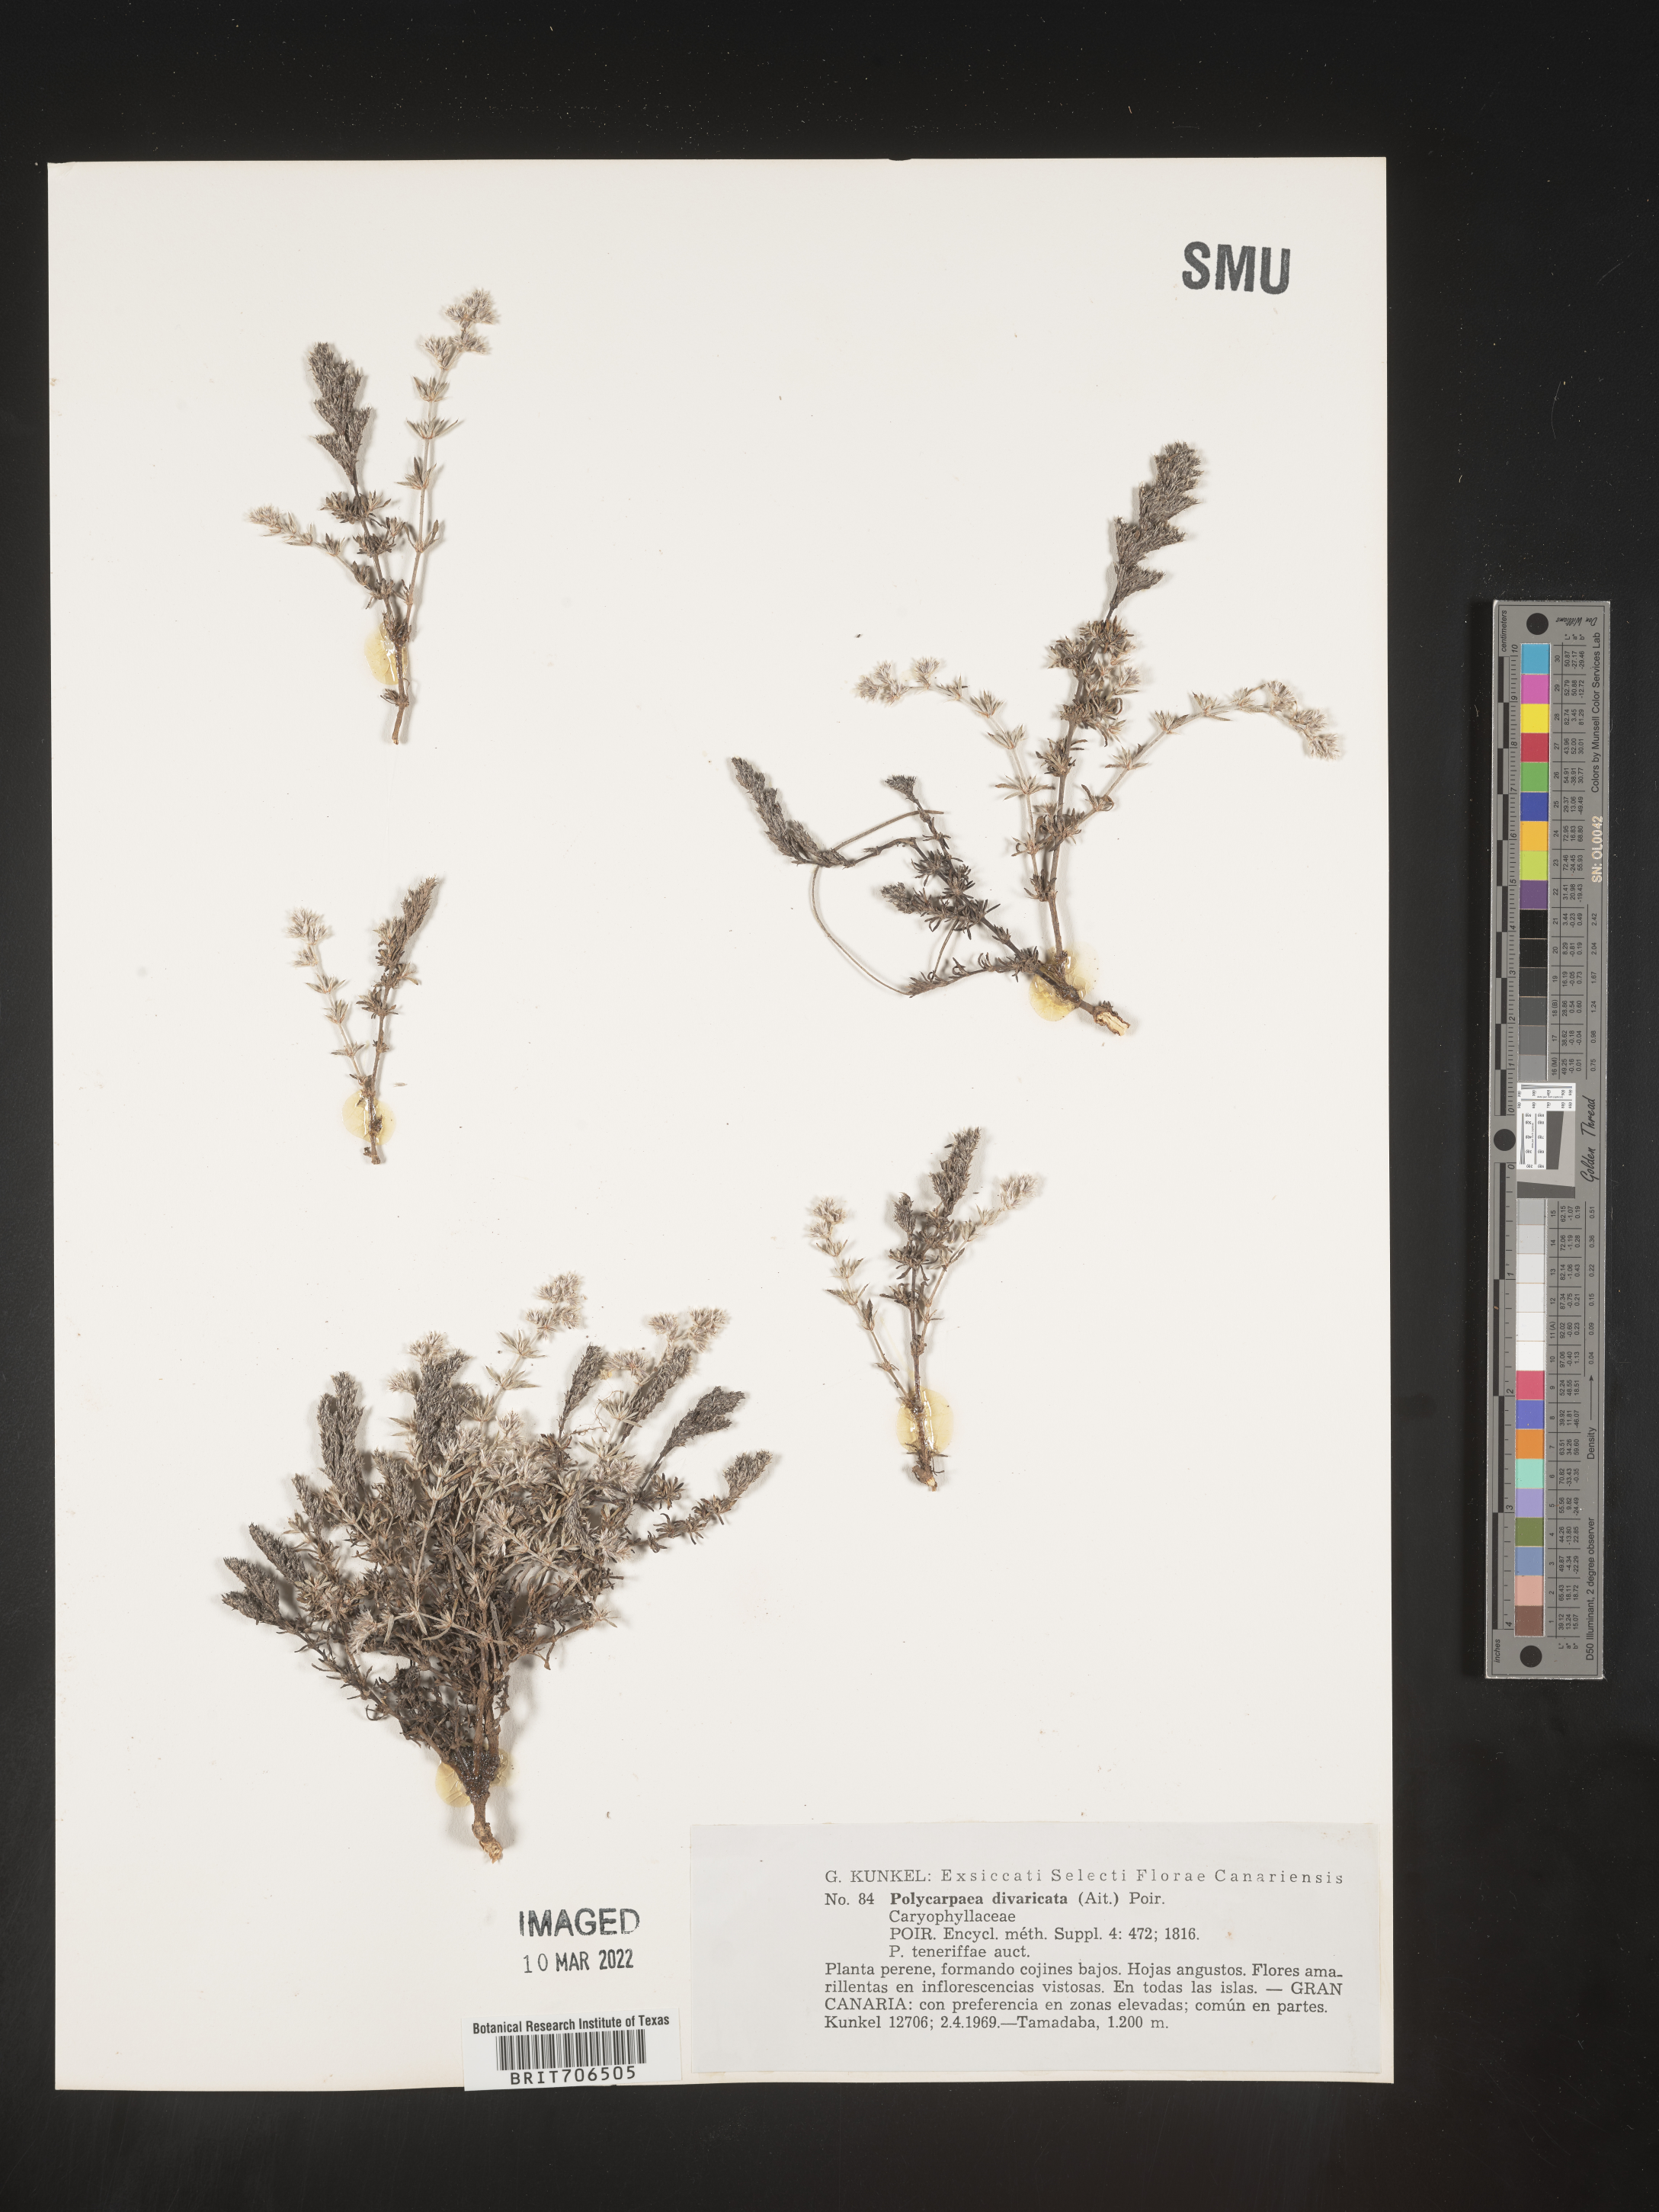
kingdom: Plantae
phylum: Tracheophyta
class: Magnoliopsida
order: Caryophyllales
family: Caryophyllaceae
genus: Polycarpaea
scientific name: Polycarpaea
